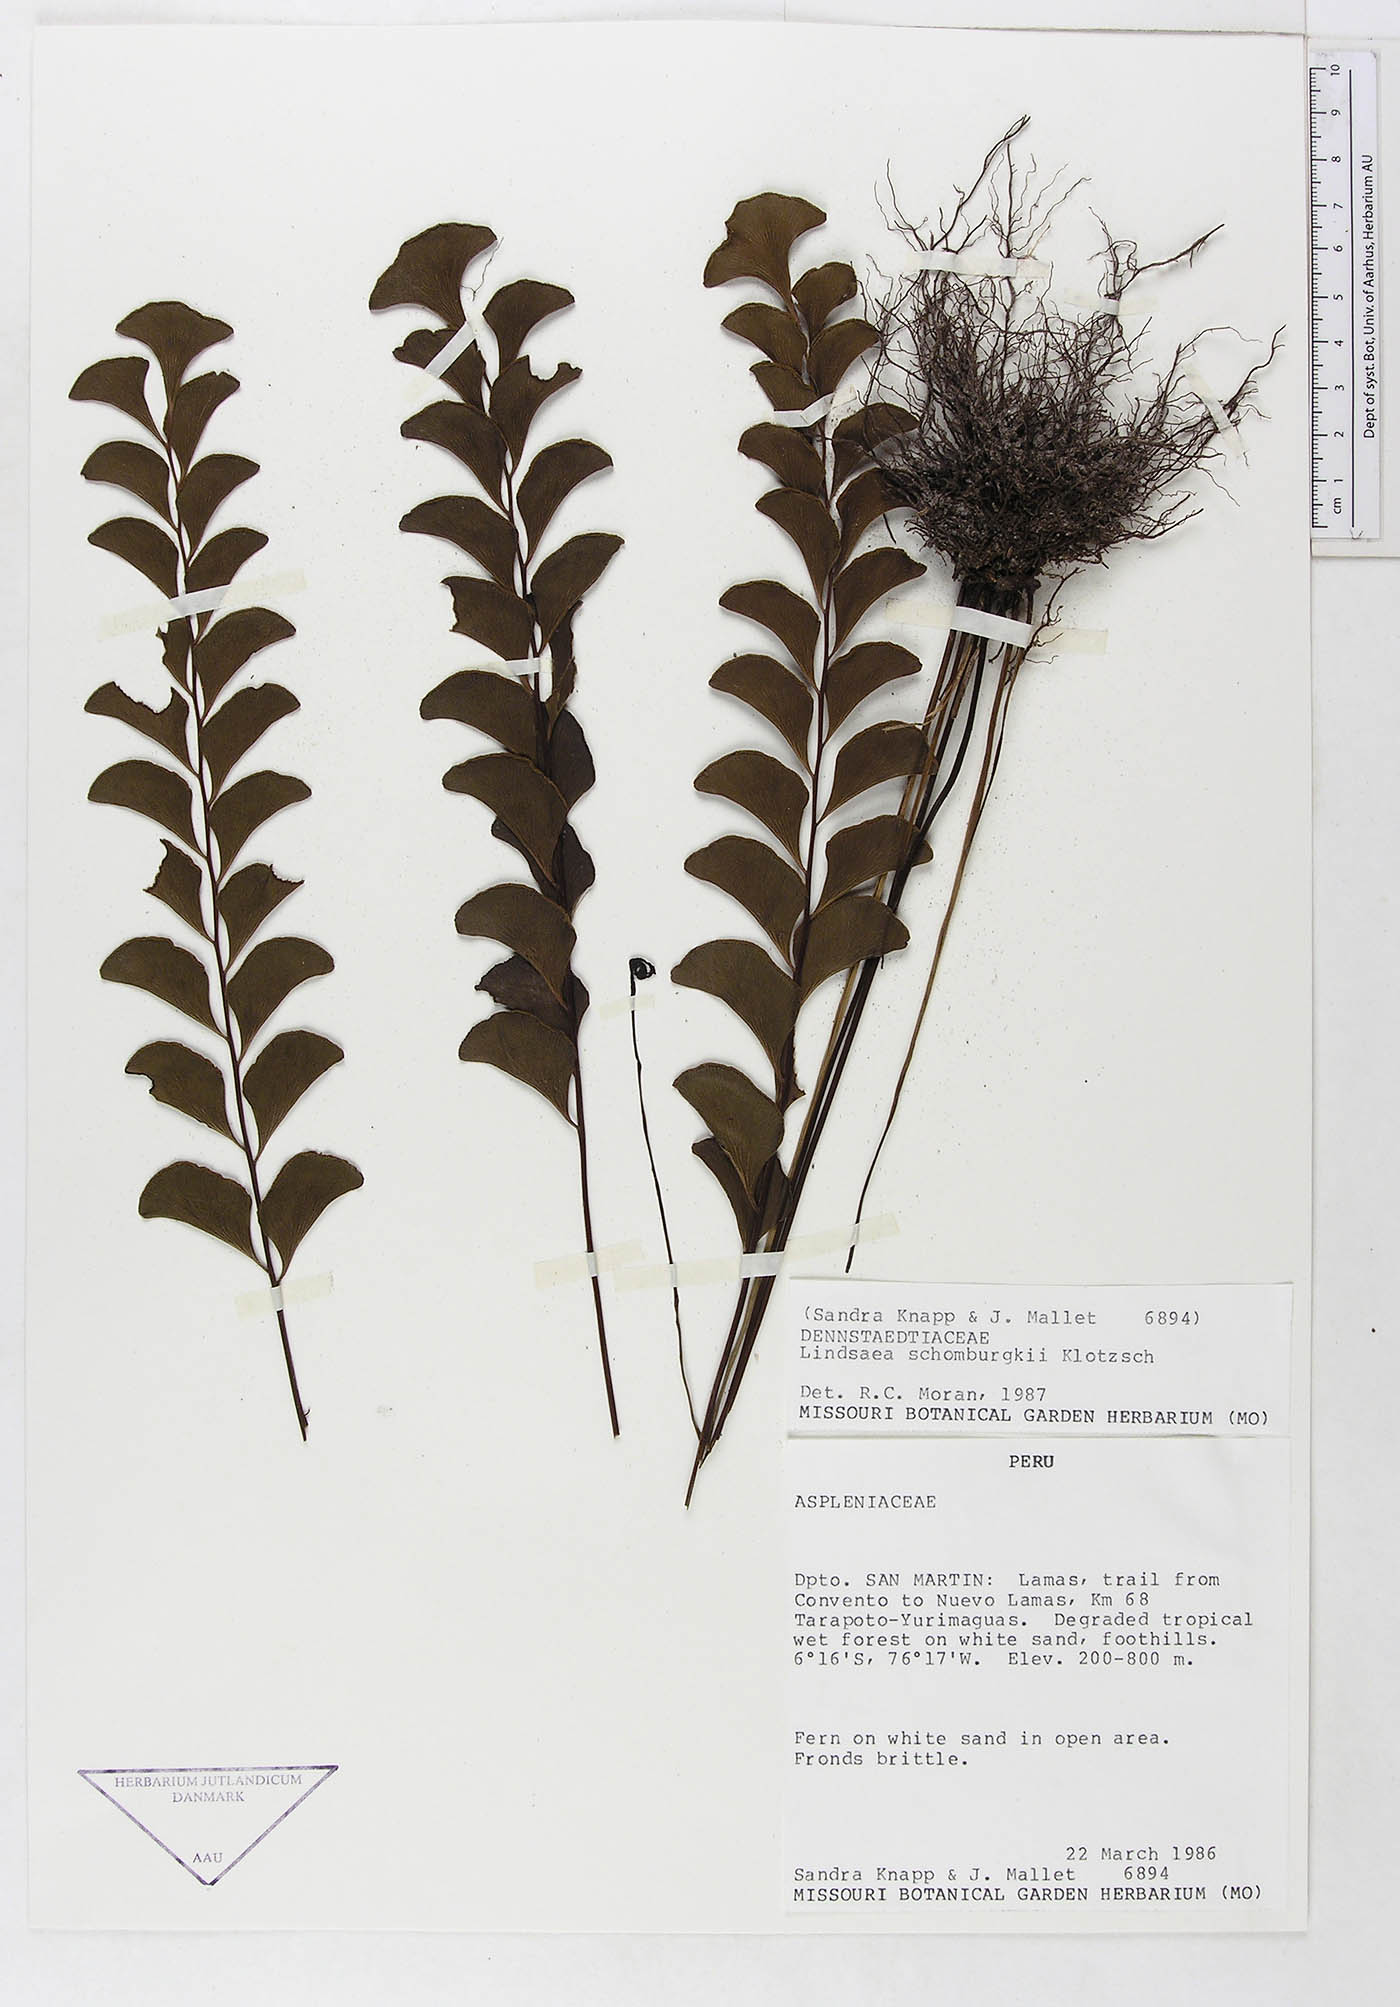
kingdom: Plantae
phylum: Tracheophyta
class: Polypodiopsida
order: Polypodiales
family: Dennstaedtiaceae
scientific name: Dennstaedtiaceae
